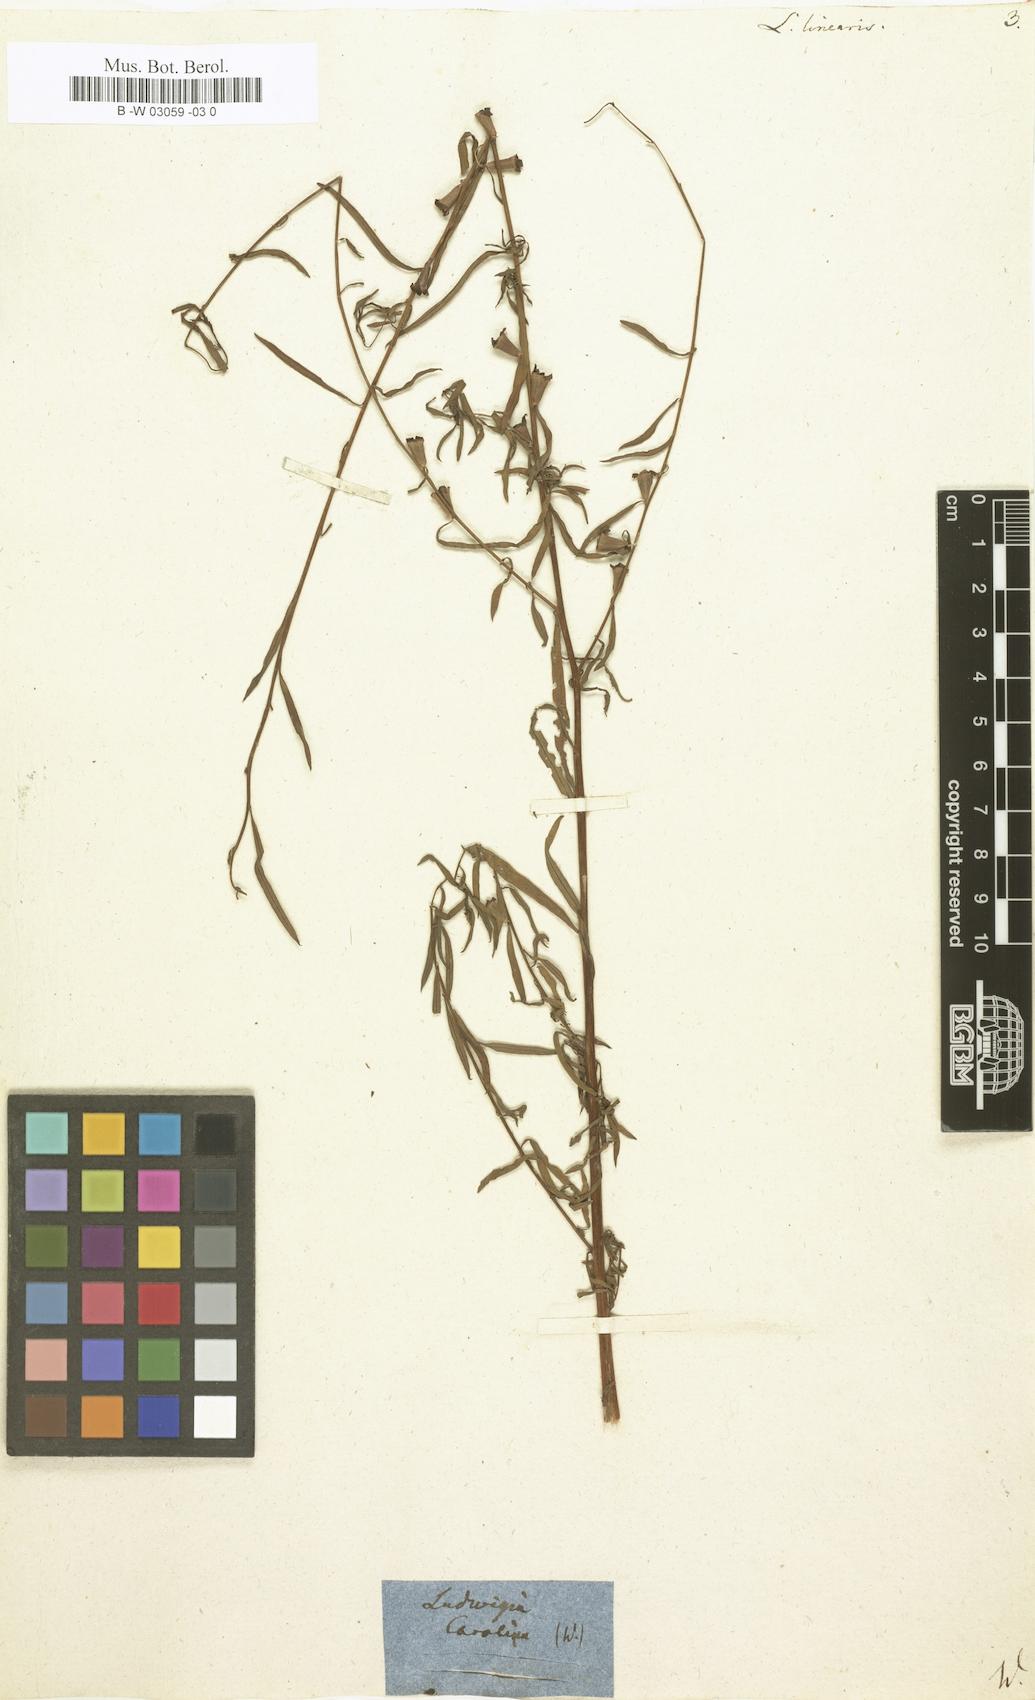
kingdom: Plantae
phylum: Tracheophyta
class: Magnoliopsida
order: Myrtales
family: Onagraceae
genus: Ludwigia
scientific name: Ludwigia linearis
